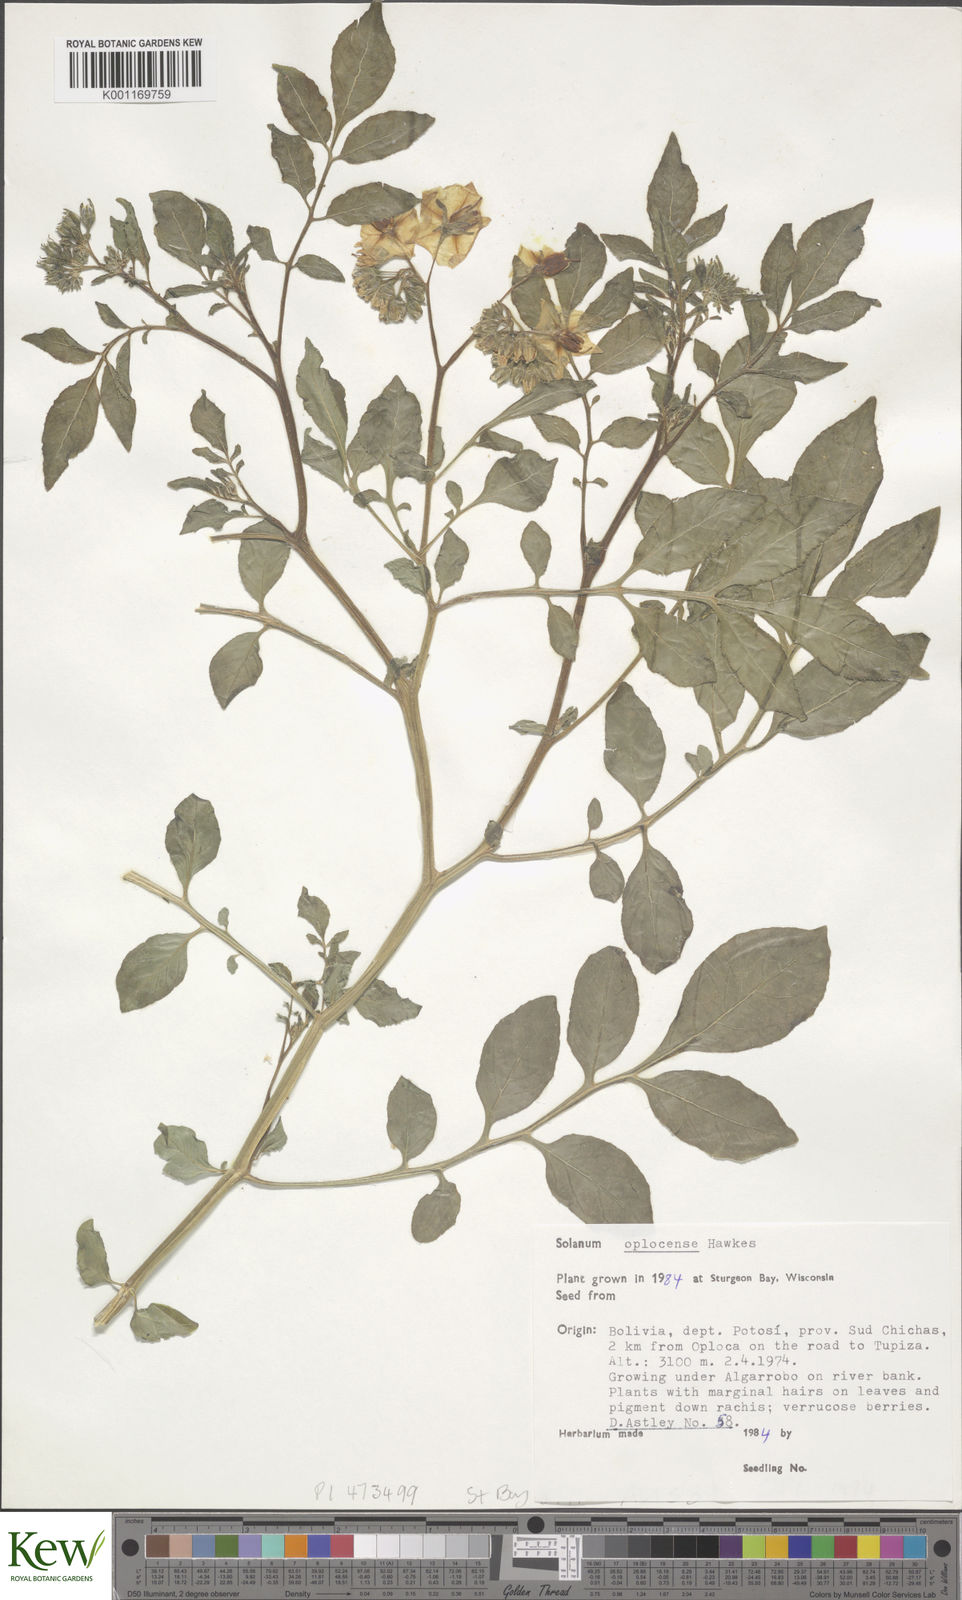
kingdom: Plantae
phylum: Tracheophyta
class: Magnoliopsida
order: Solanales
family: Solanaceae
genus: Solanum
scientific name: Solanum brevicaule
